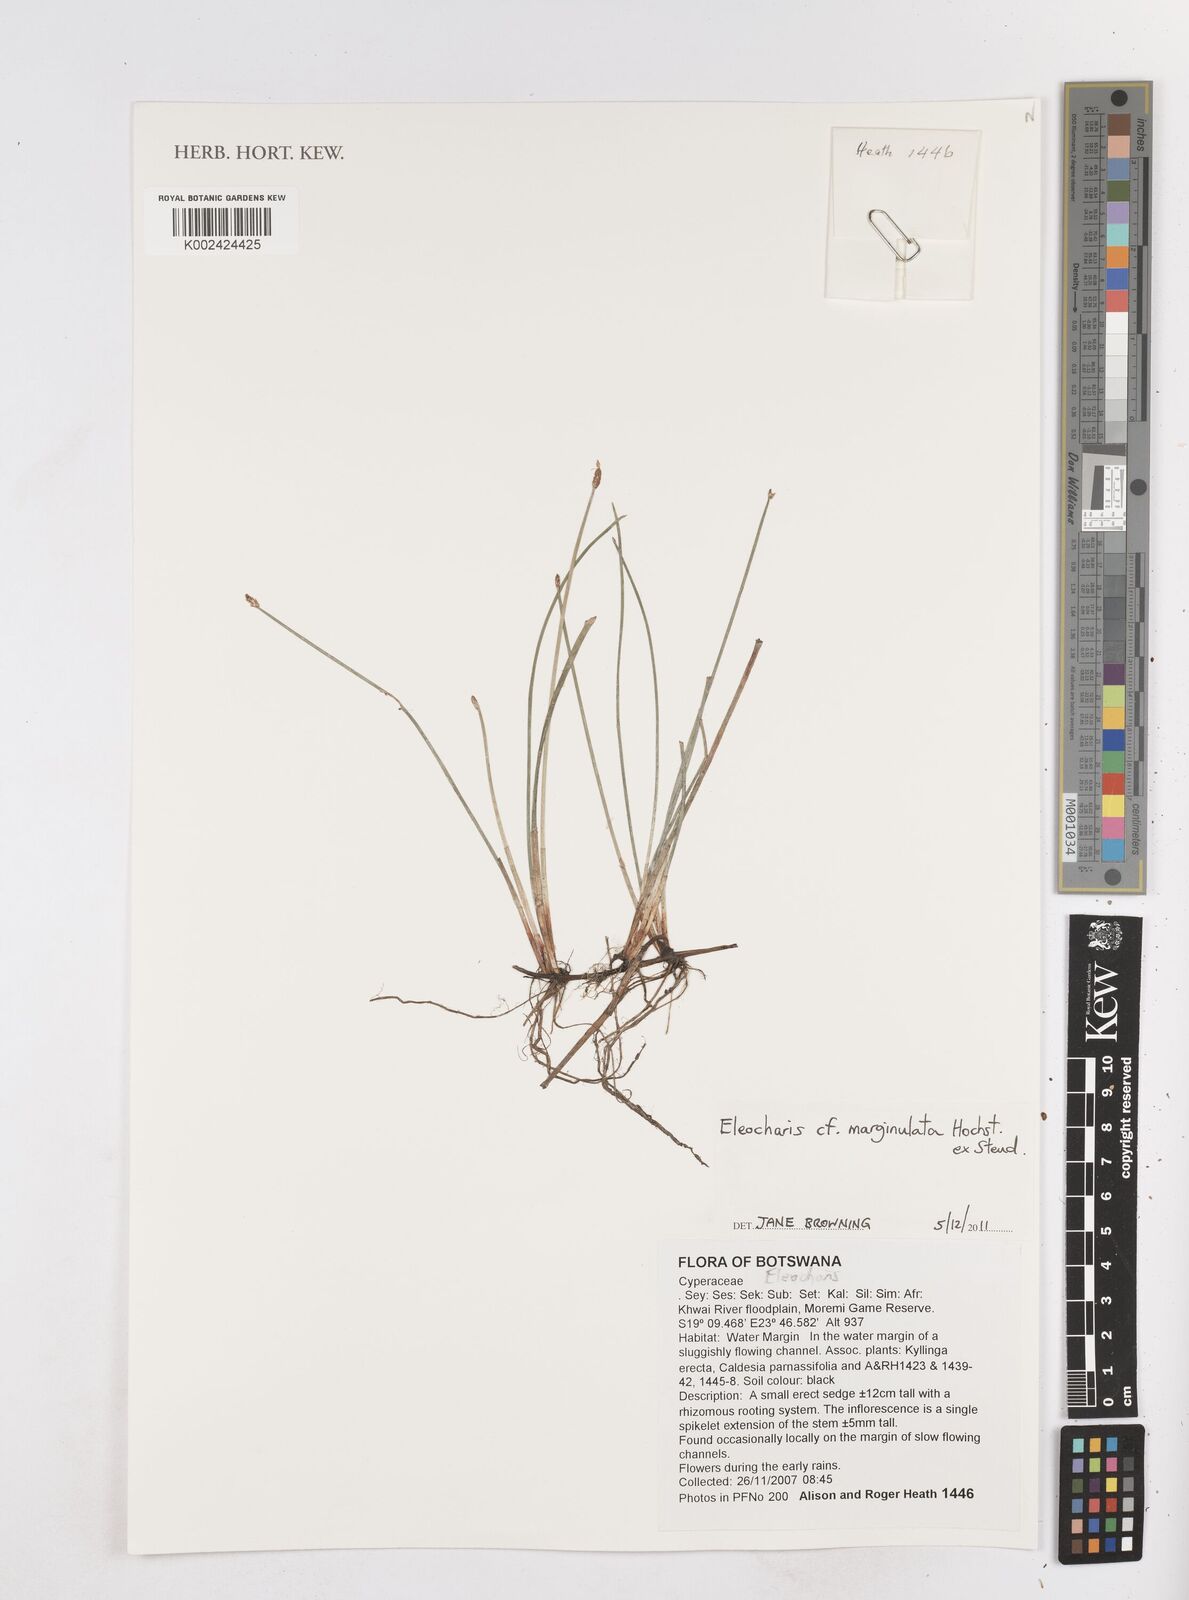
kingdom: Plantae
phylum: Tracheophyta
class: Liliopsida
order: Poales
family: Cyperaceae
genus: Eleocharis
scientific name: Eleocharis marginulata
